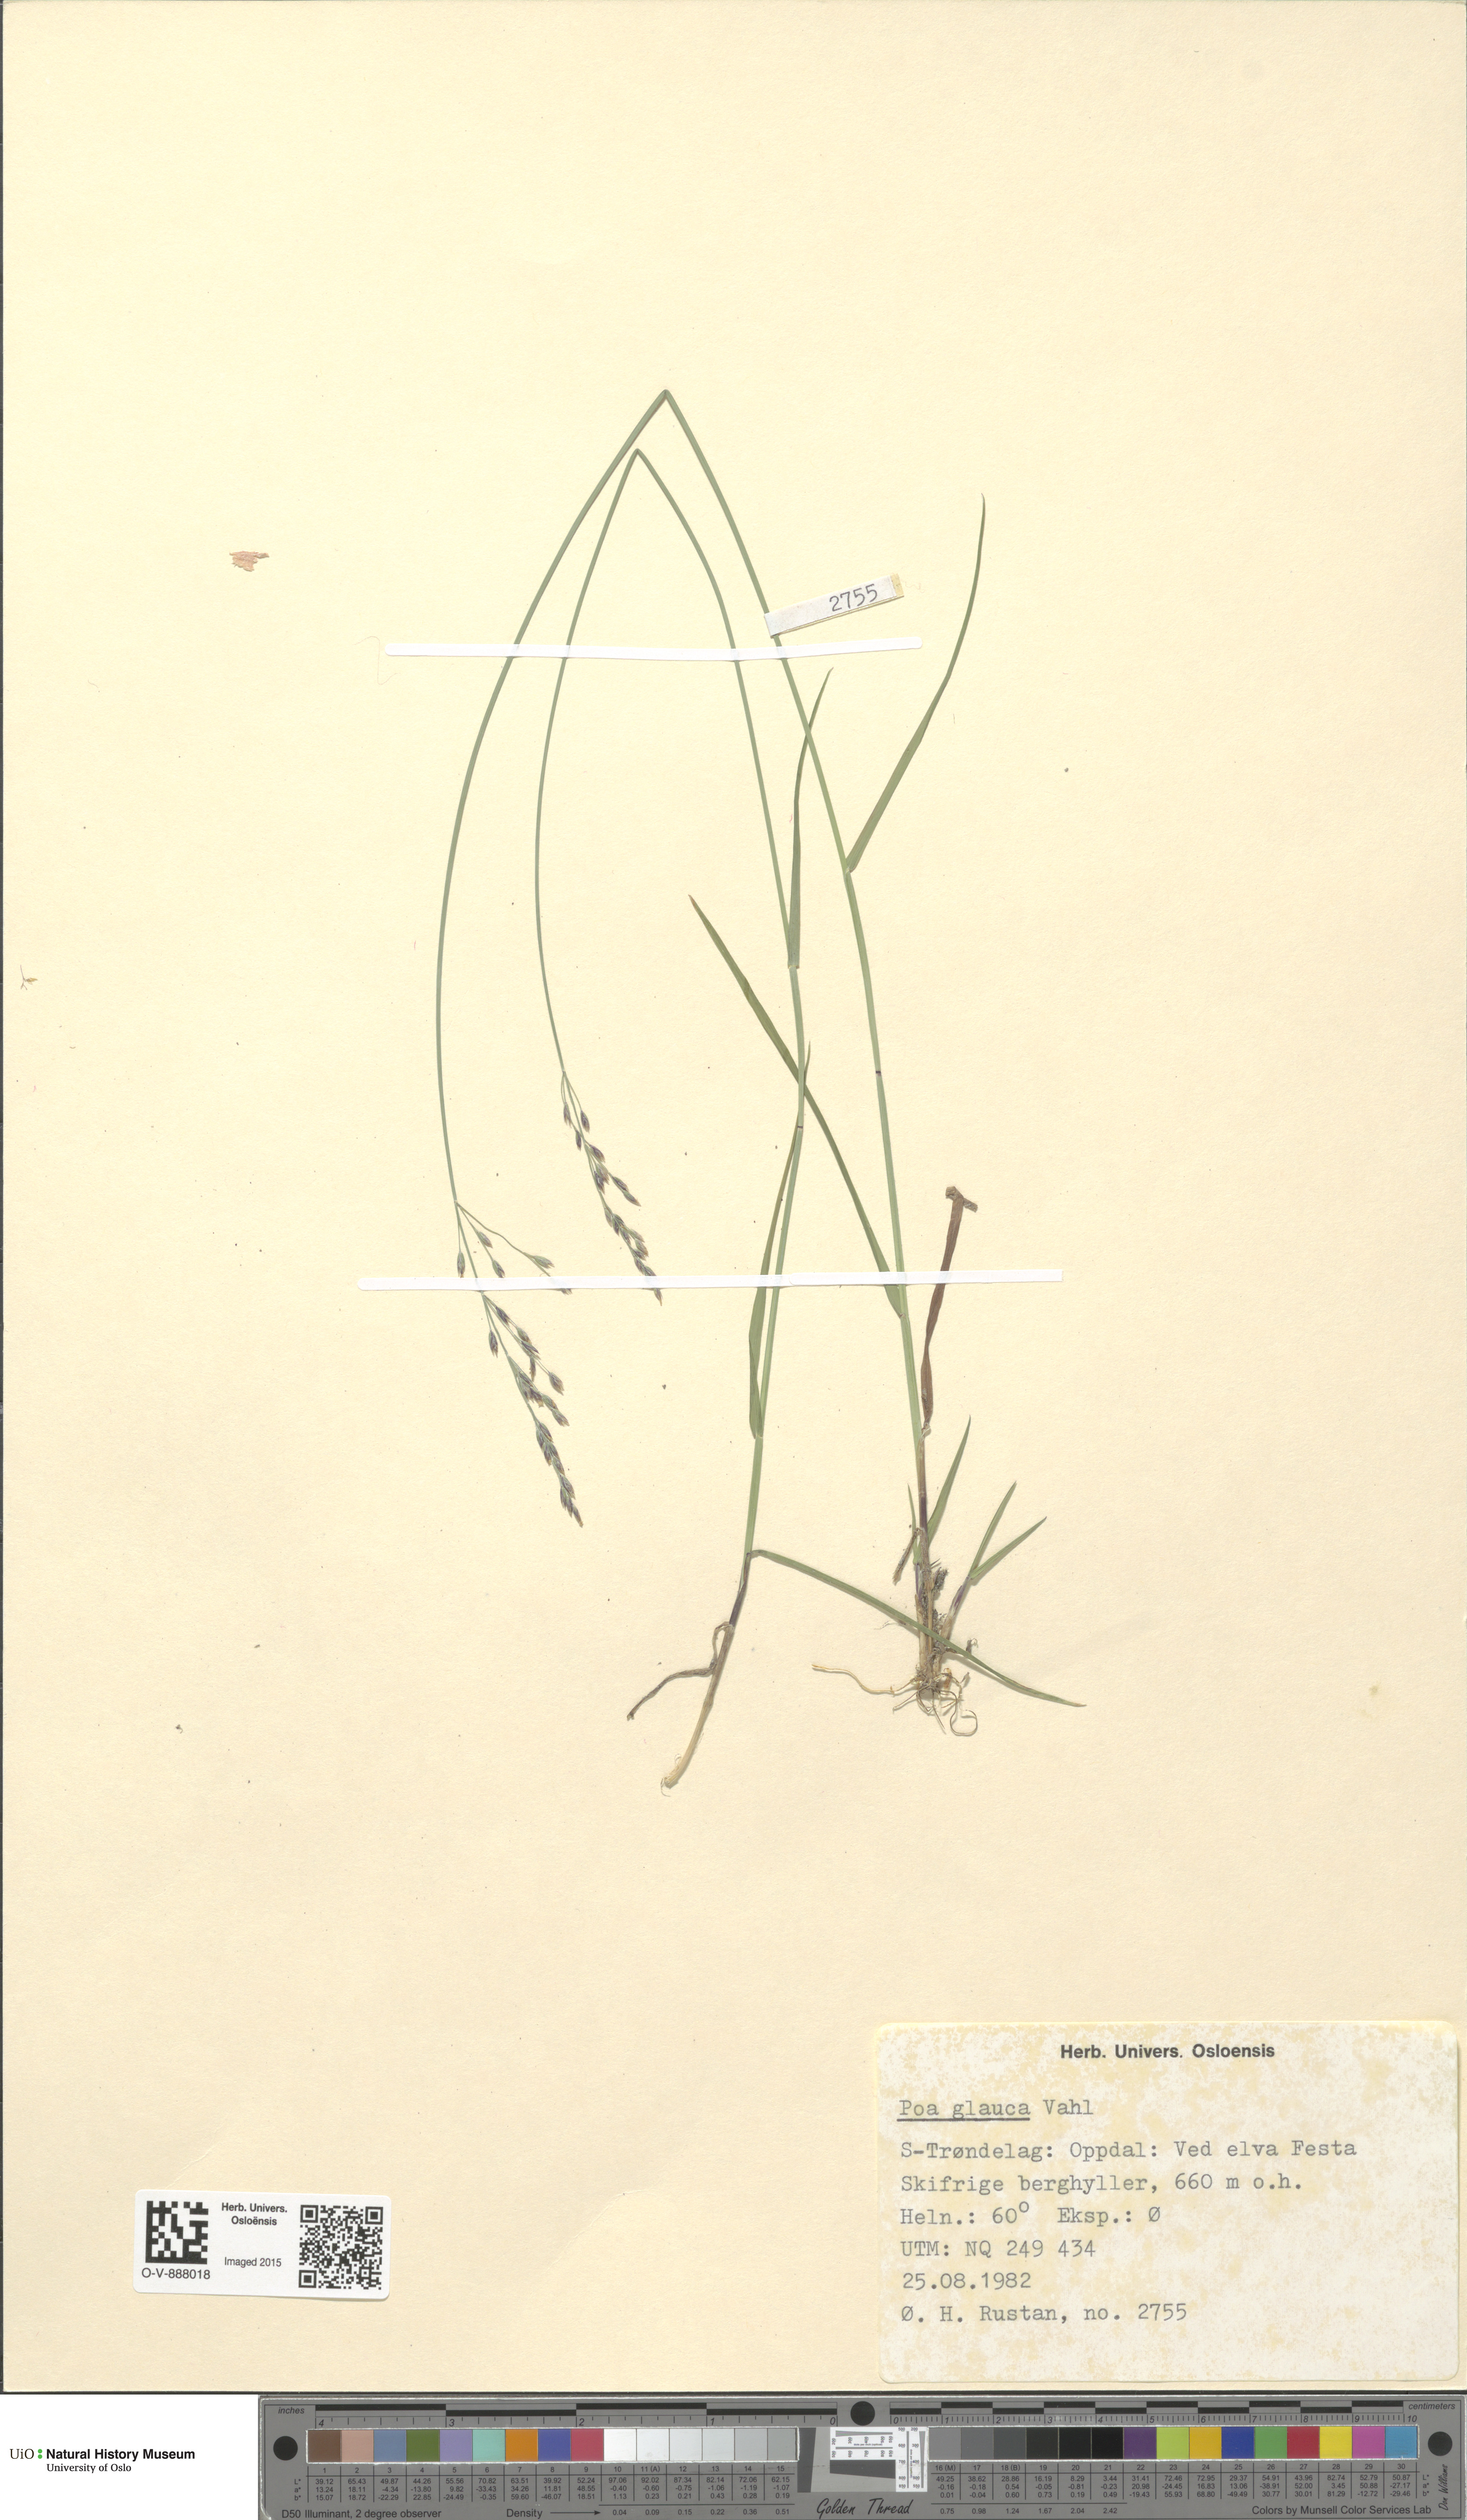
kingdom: Plantae
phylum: Tracheophyta
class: Liliopsida
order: Poales
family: Poaceae
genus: Poa
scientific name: Poa glauca
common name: Glaucous bluegrass
